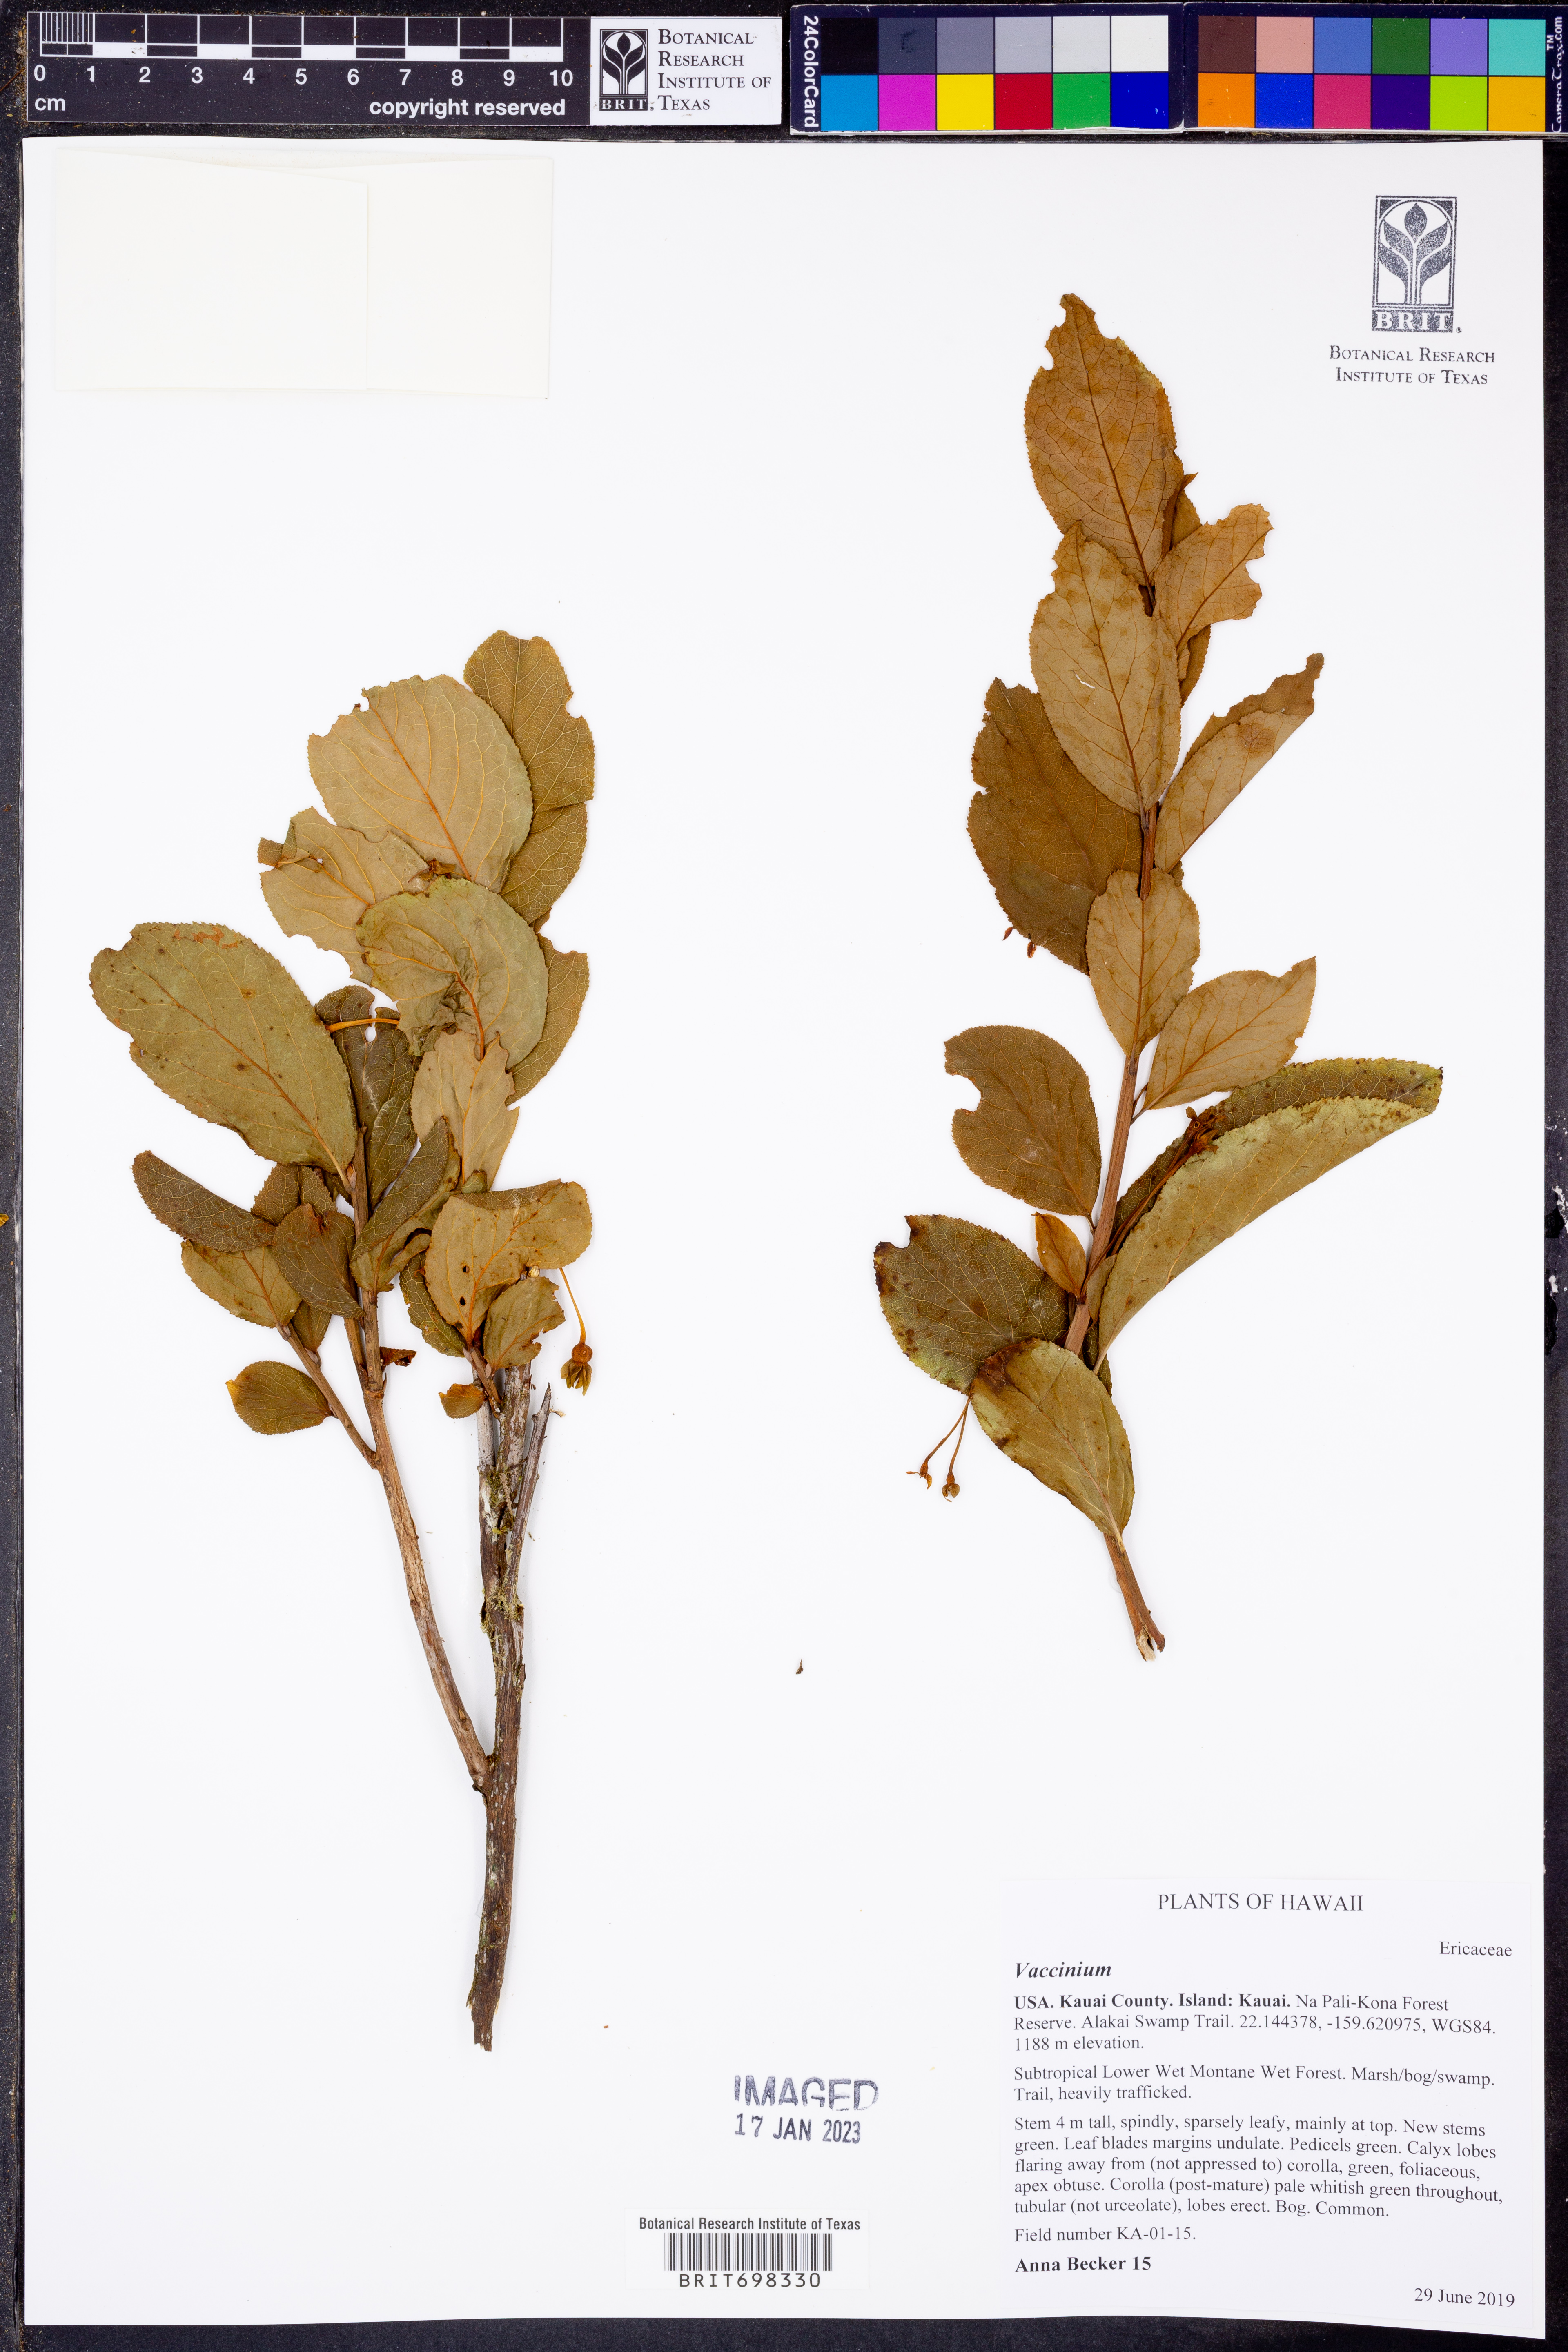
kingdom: Plantae
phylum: Tracheophyta
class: Magnoliopsida
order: Ericales
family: Ericaceae
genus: Vaccinium
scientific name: Vaccinium
